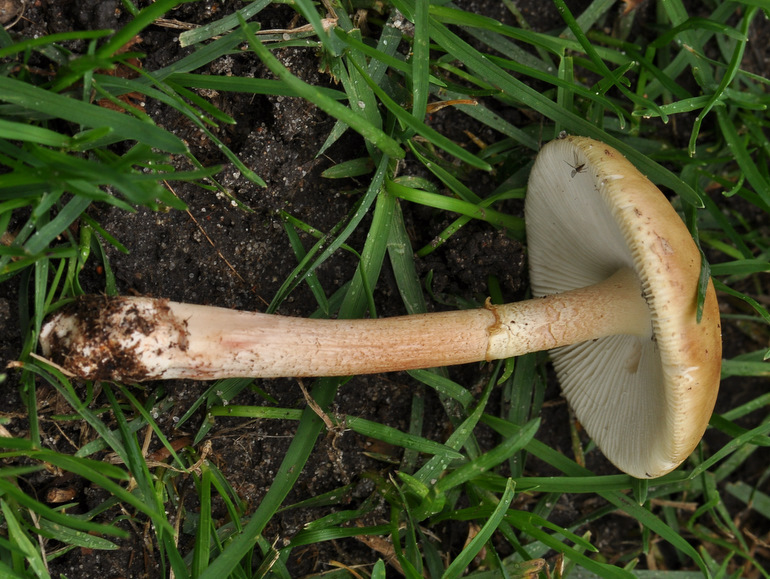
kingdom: Fungi
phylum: Basidiomycota
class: Agaricomycetes
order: Agaricales
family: Amanitaceae
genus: Amanita
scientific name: Amanita rubescens
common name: rødmende fluesvamp
